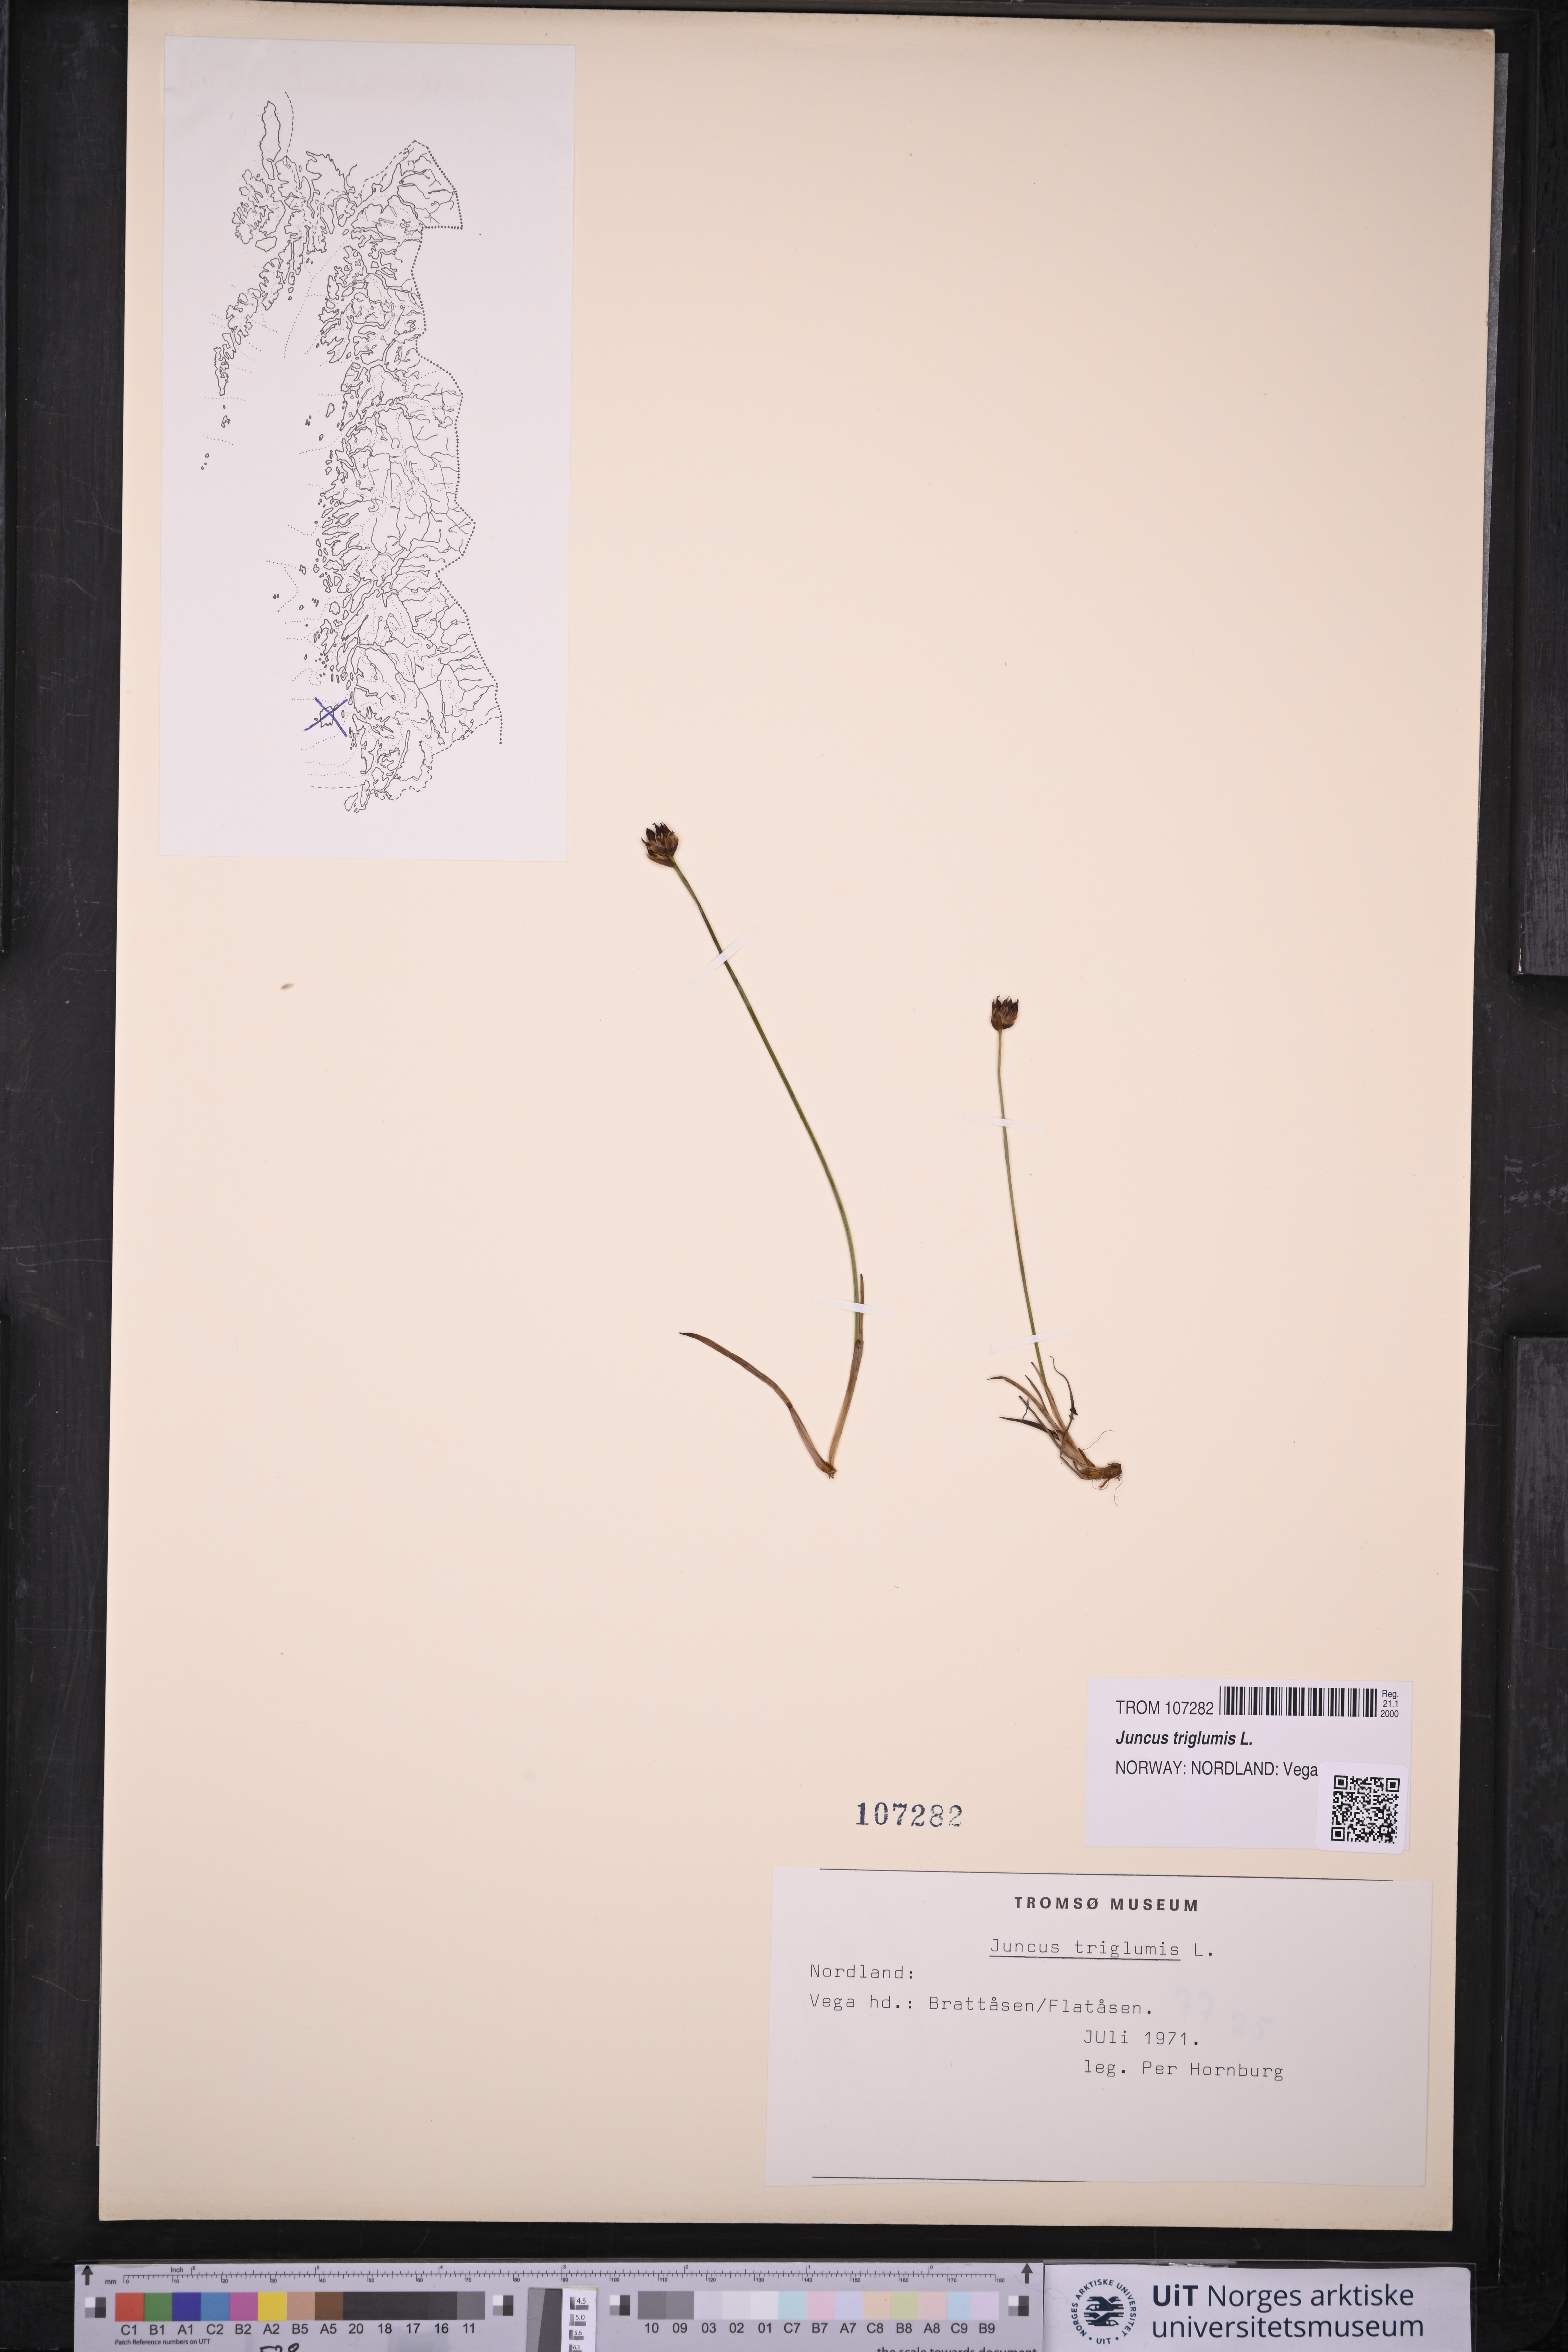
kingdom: Plantae
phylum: Tracheophyta
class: Liliopsida
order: Poales
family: Juncaceae
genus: Juncus
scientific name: Juncus triglumis
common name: Three-flowered rush
